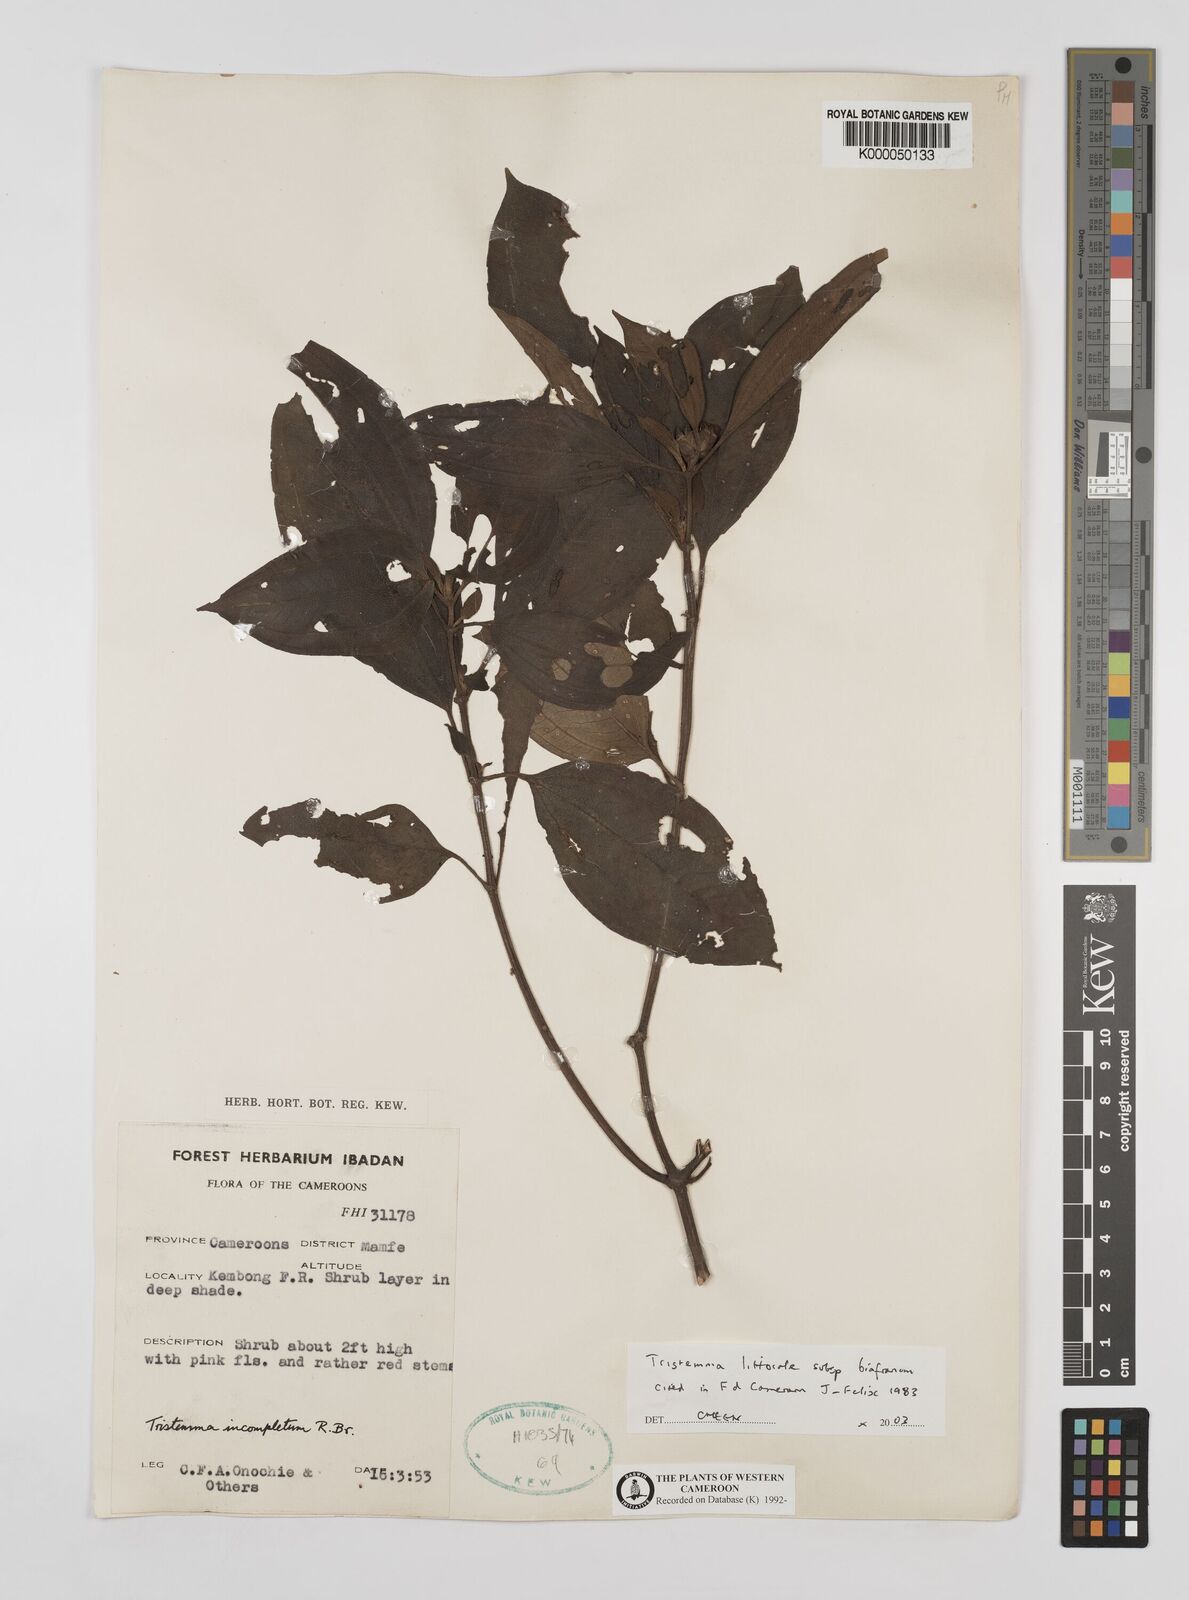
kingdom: Plantae
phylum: Tracheophyta
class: Magnoliopsida
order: Myrtales
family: Melastomataceae
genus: Tristemma
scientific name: Tristemma littorale
